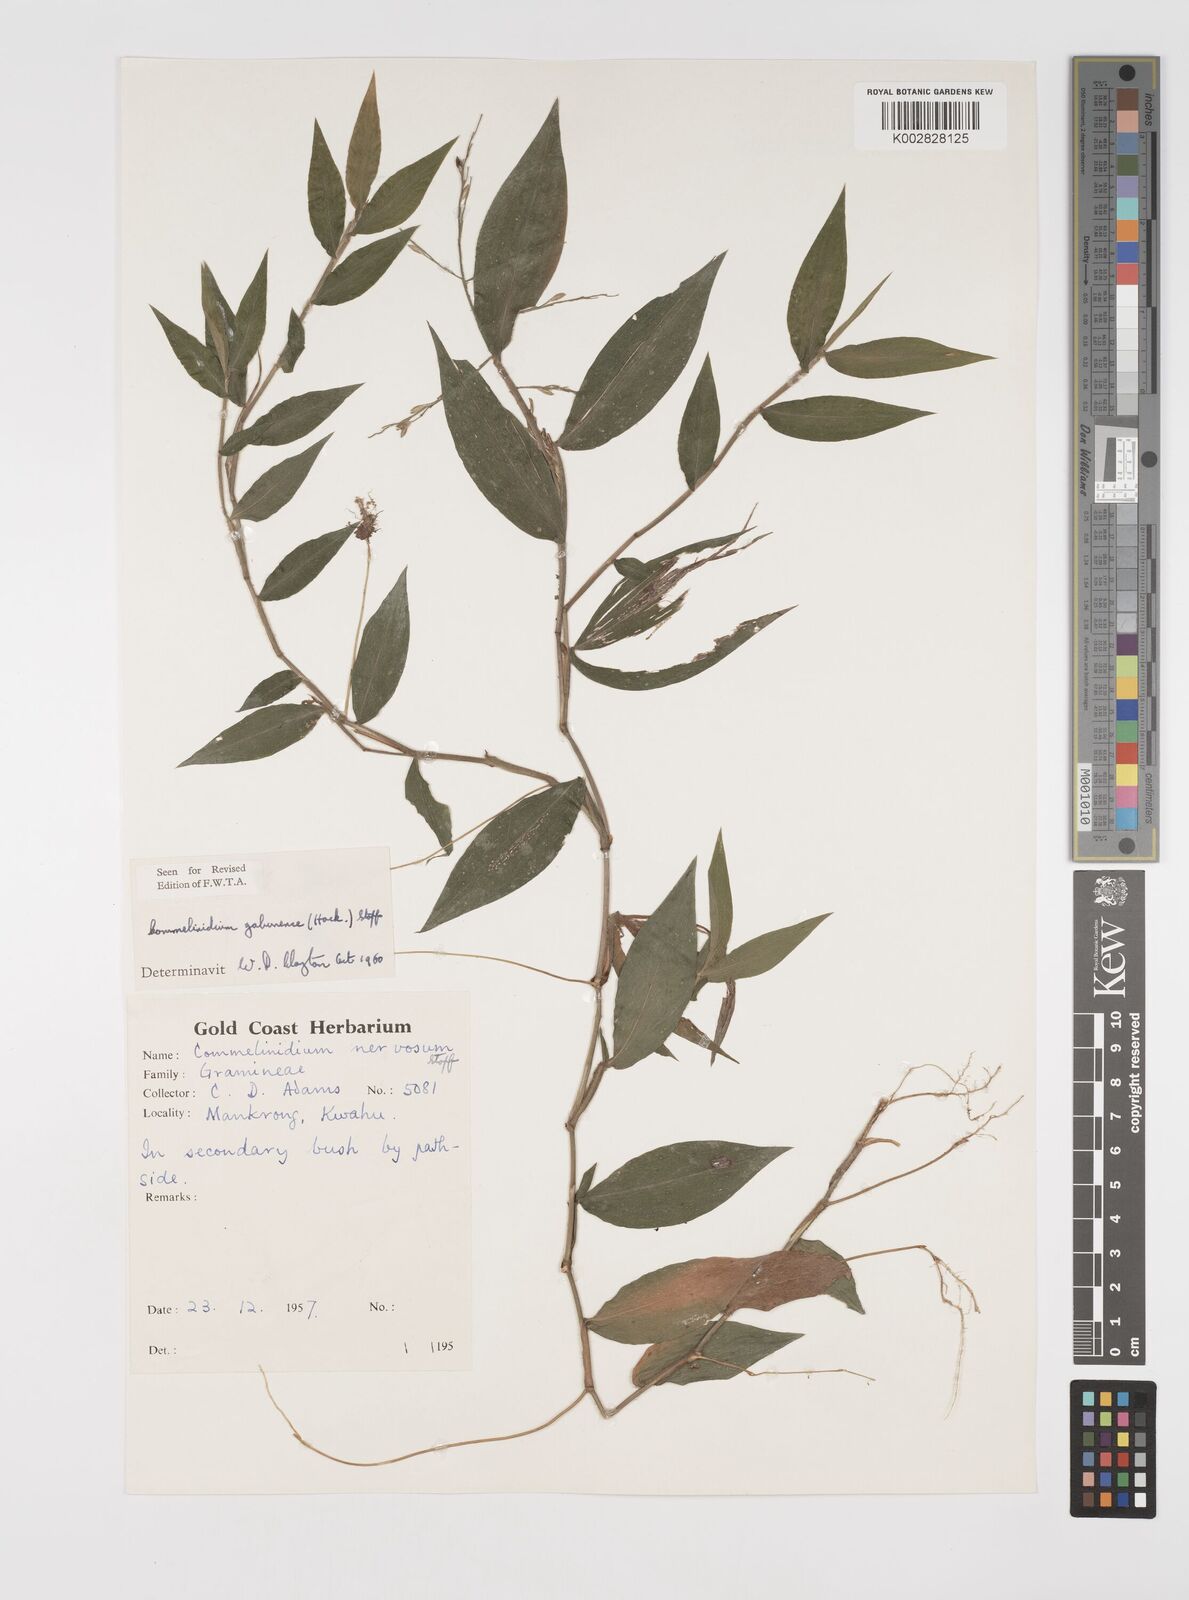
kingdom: Plantae
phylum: Tracheophyta
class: Liliopsida
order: Poales
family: Poaceae
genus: Acroceras
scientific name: Acroceras gabunense
